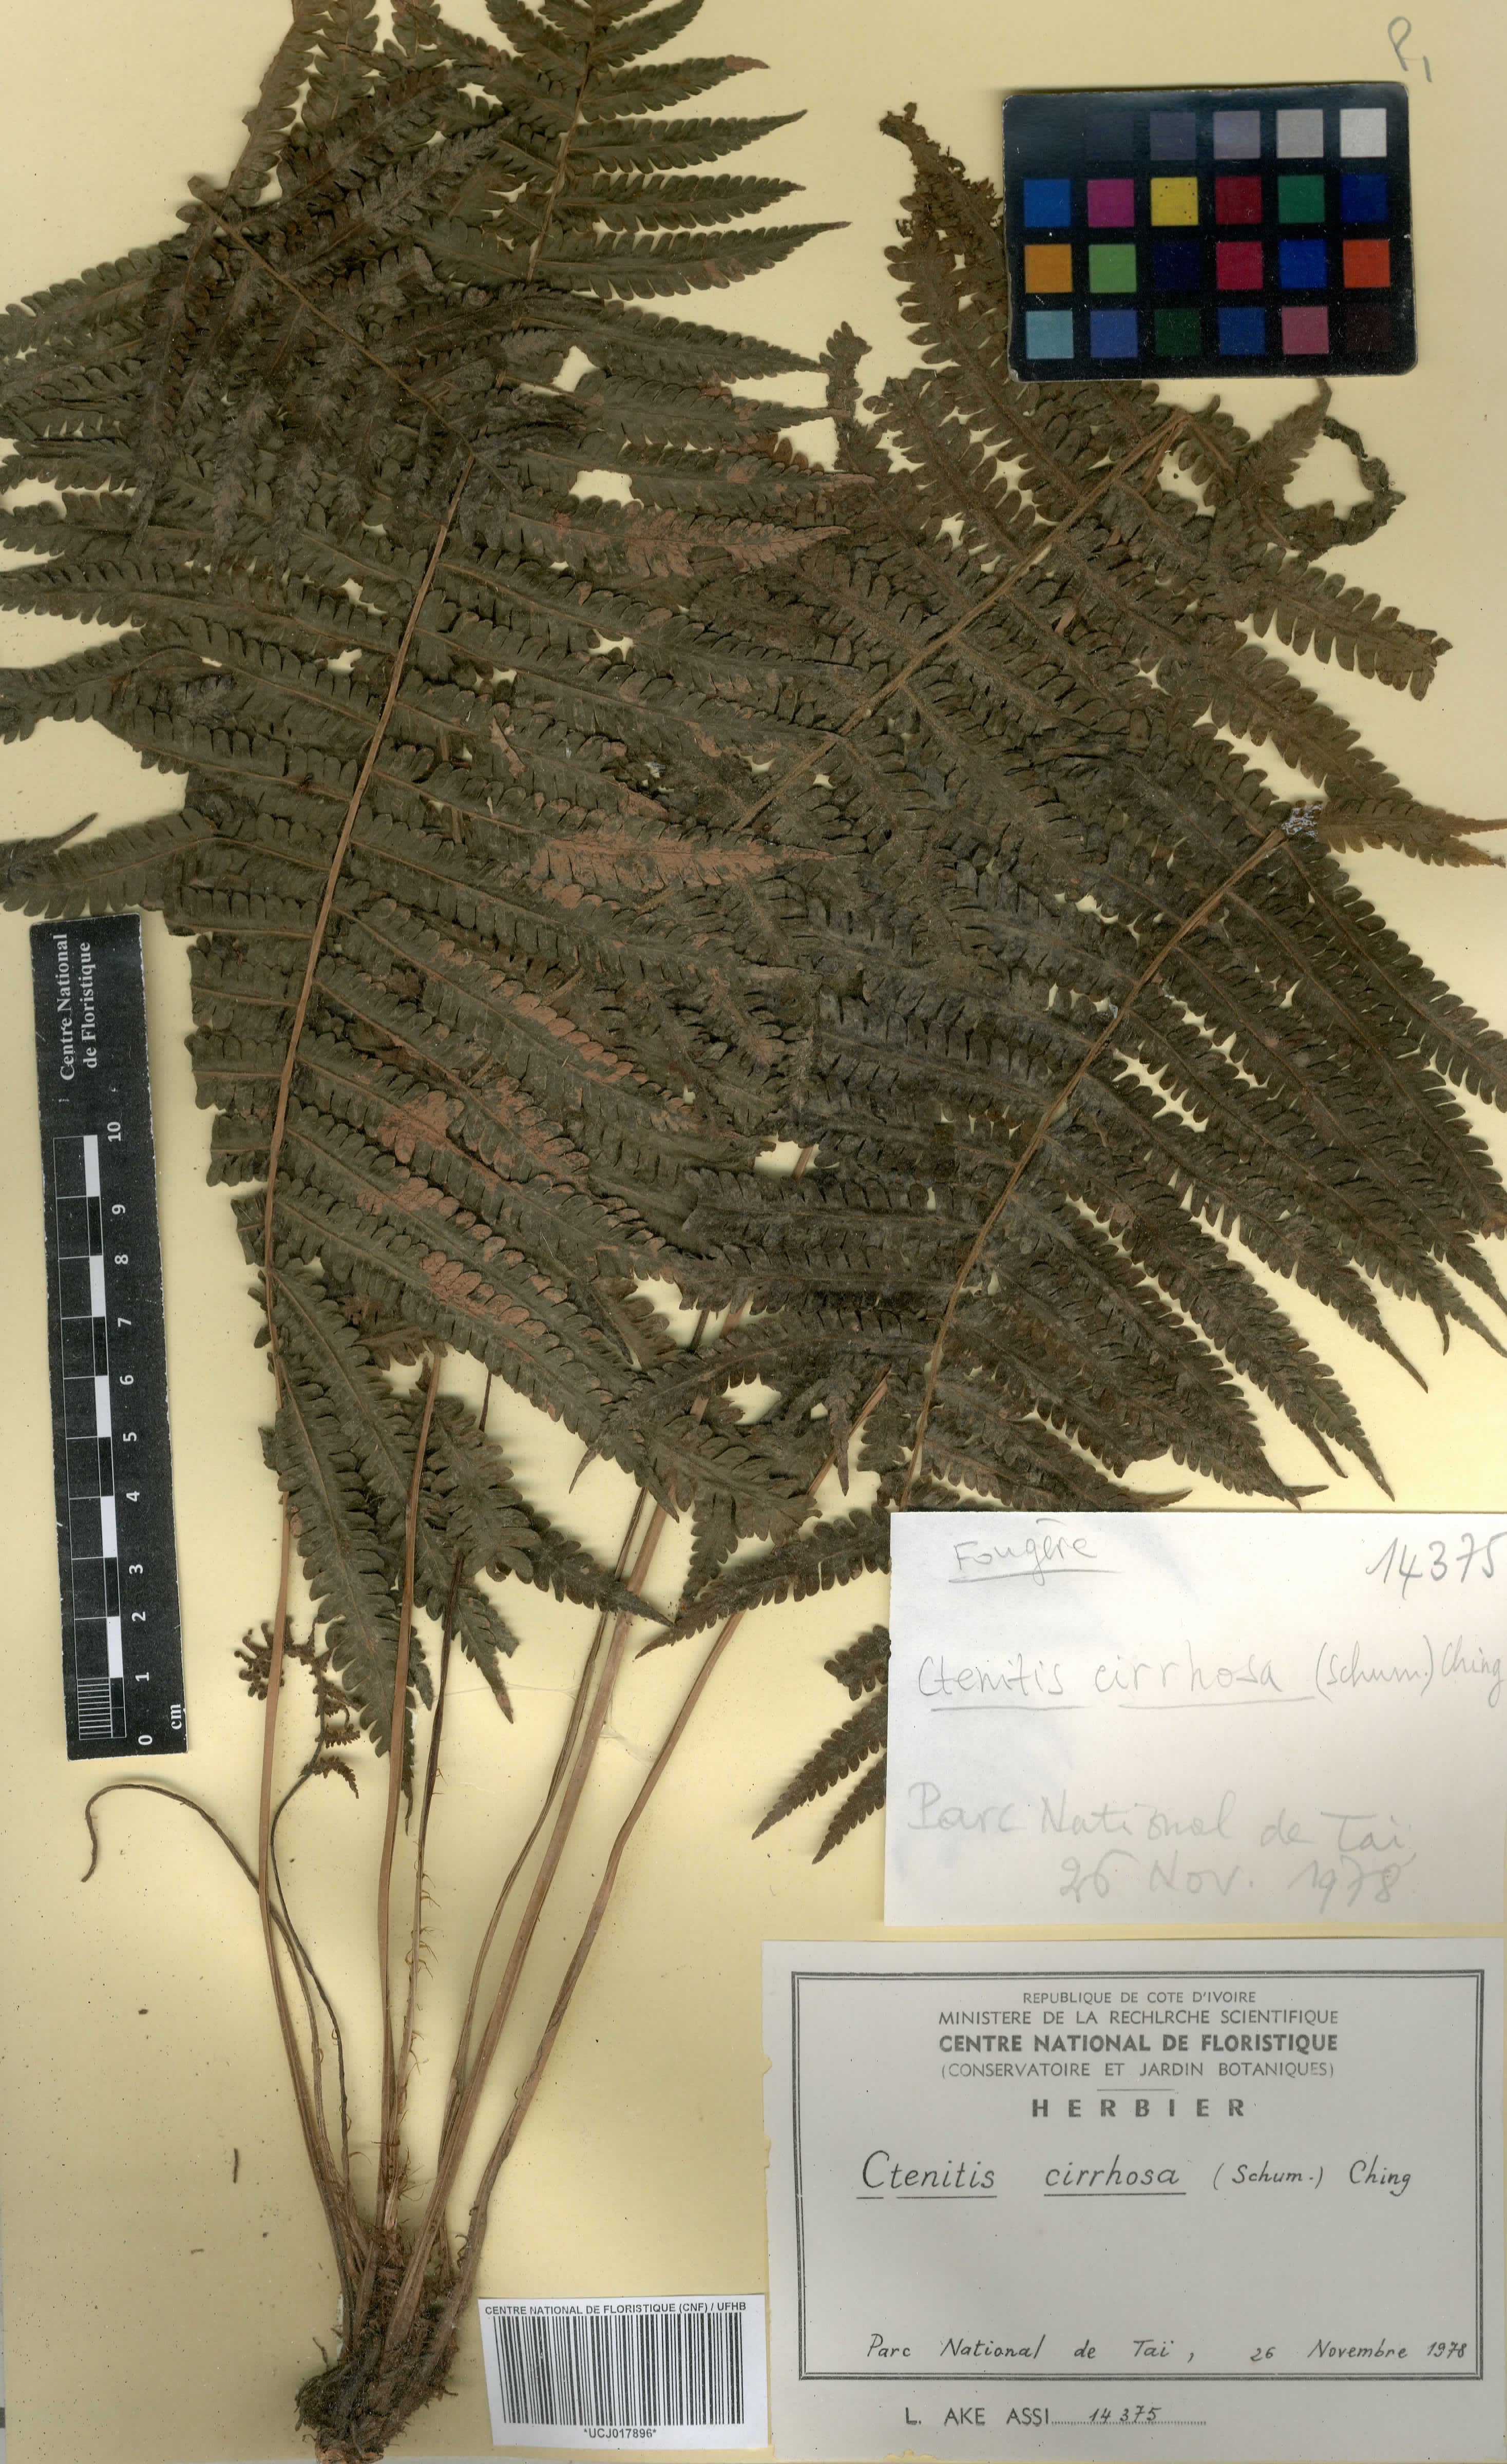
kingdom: Plantae
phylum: Tracheophyta
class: Polypodiopsida
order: Polypodiales
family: Dryopteridaceae
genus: Ctenitis
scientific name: Ctenitis cirrhosa
